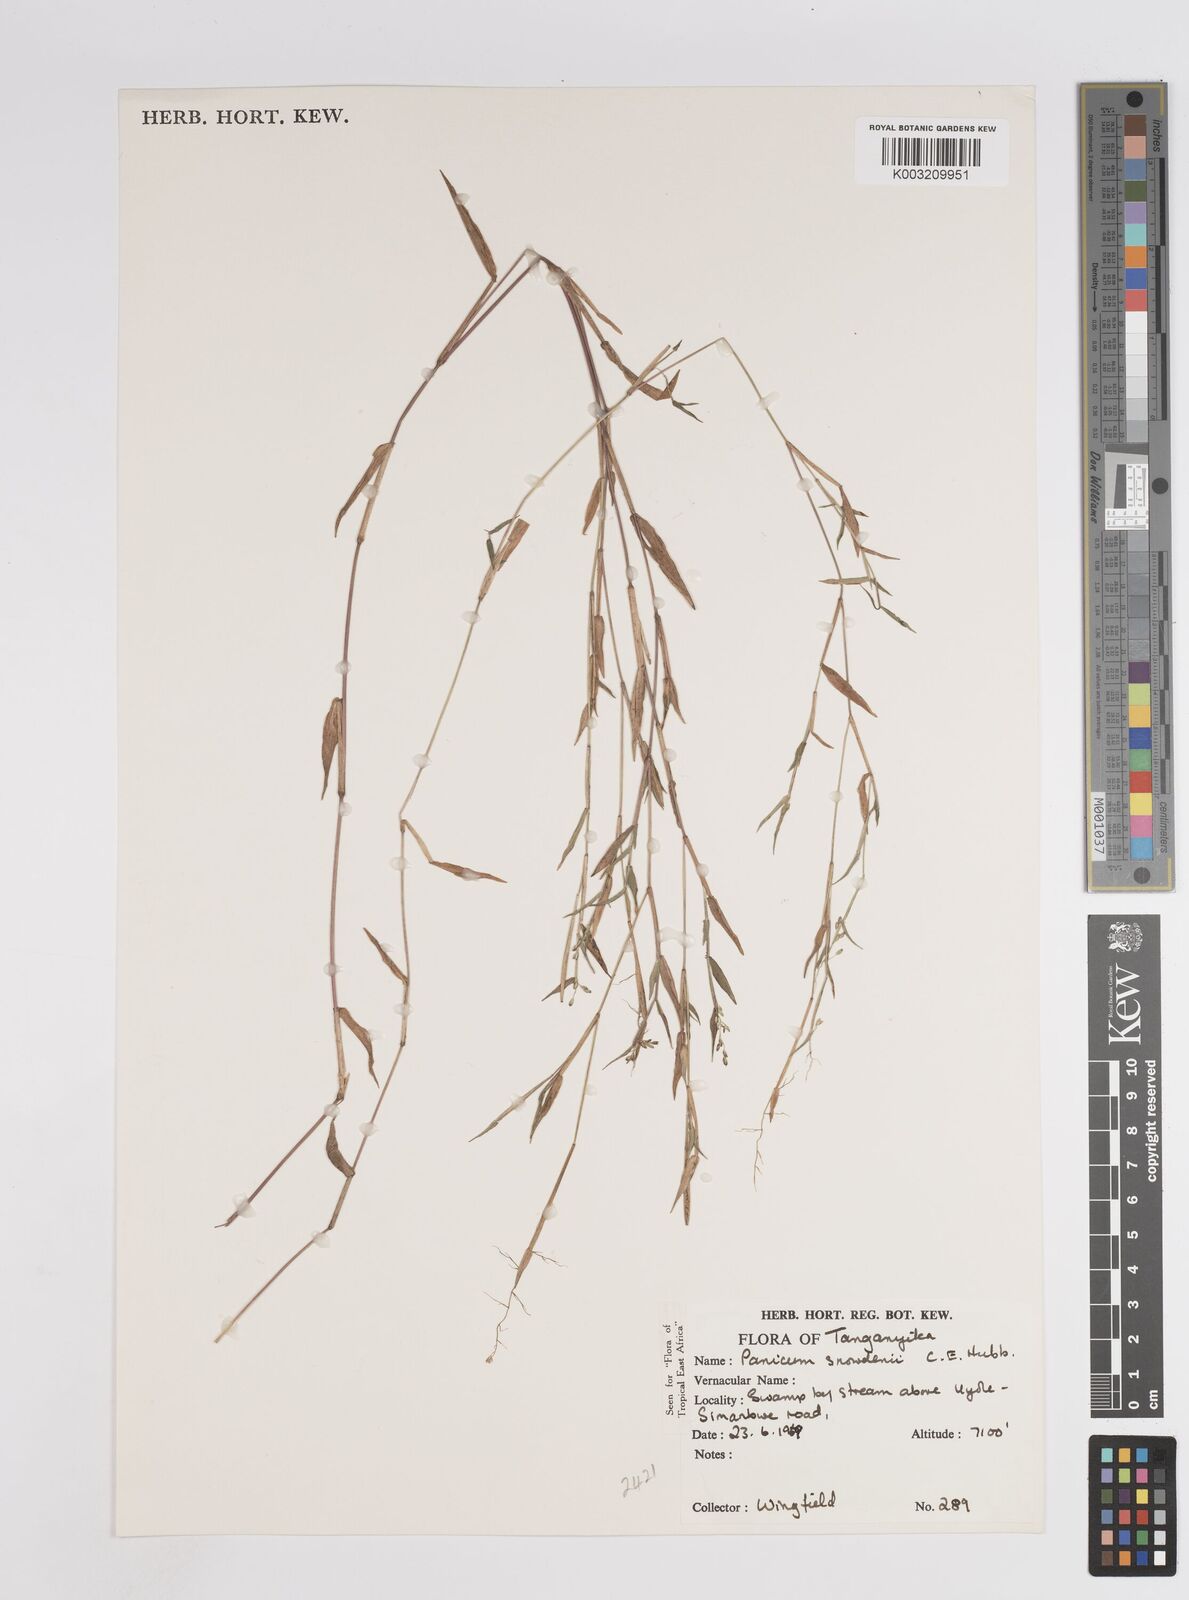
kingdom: Plantae
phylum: Tracheophyta
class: Liliopsida
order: Poales
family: Poaceae
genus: Adenochloa
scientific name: Adenochloa hymeniochila
